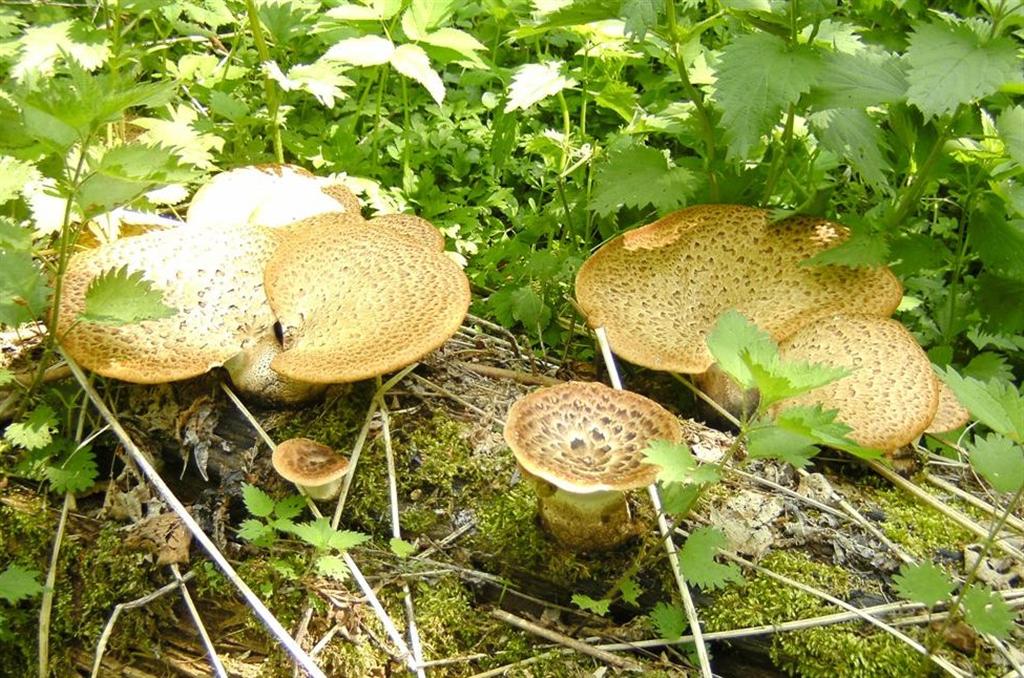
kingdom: Fungi
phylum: Basidiomycota
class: Agaricomycetes
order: Polyporales
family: Polyporaceae
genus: Cerioporus
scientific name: Cerioporus squamosus
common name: skællet stilkporesvamp
